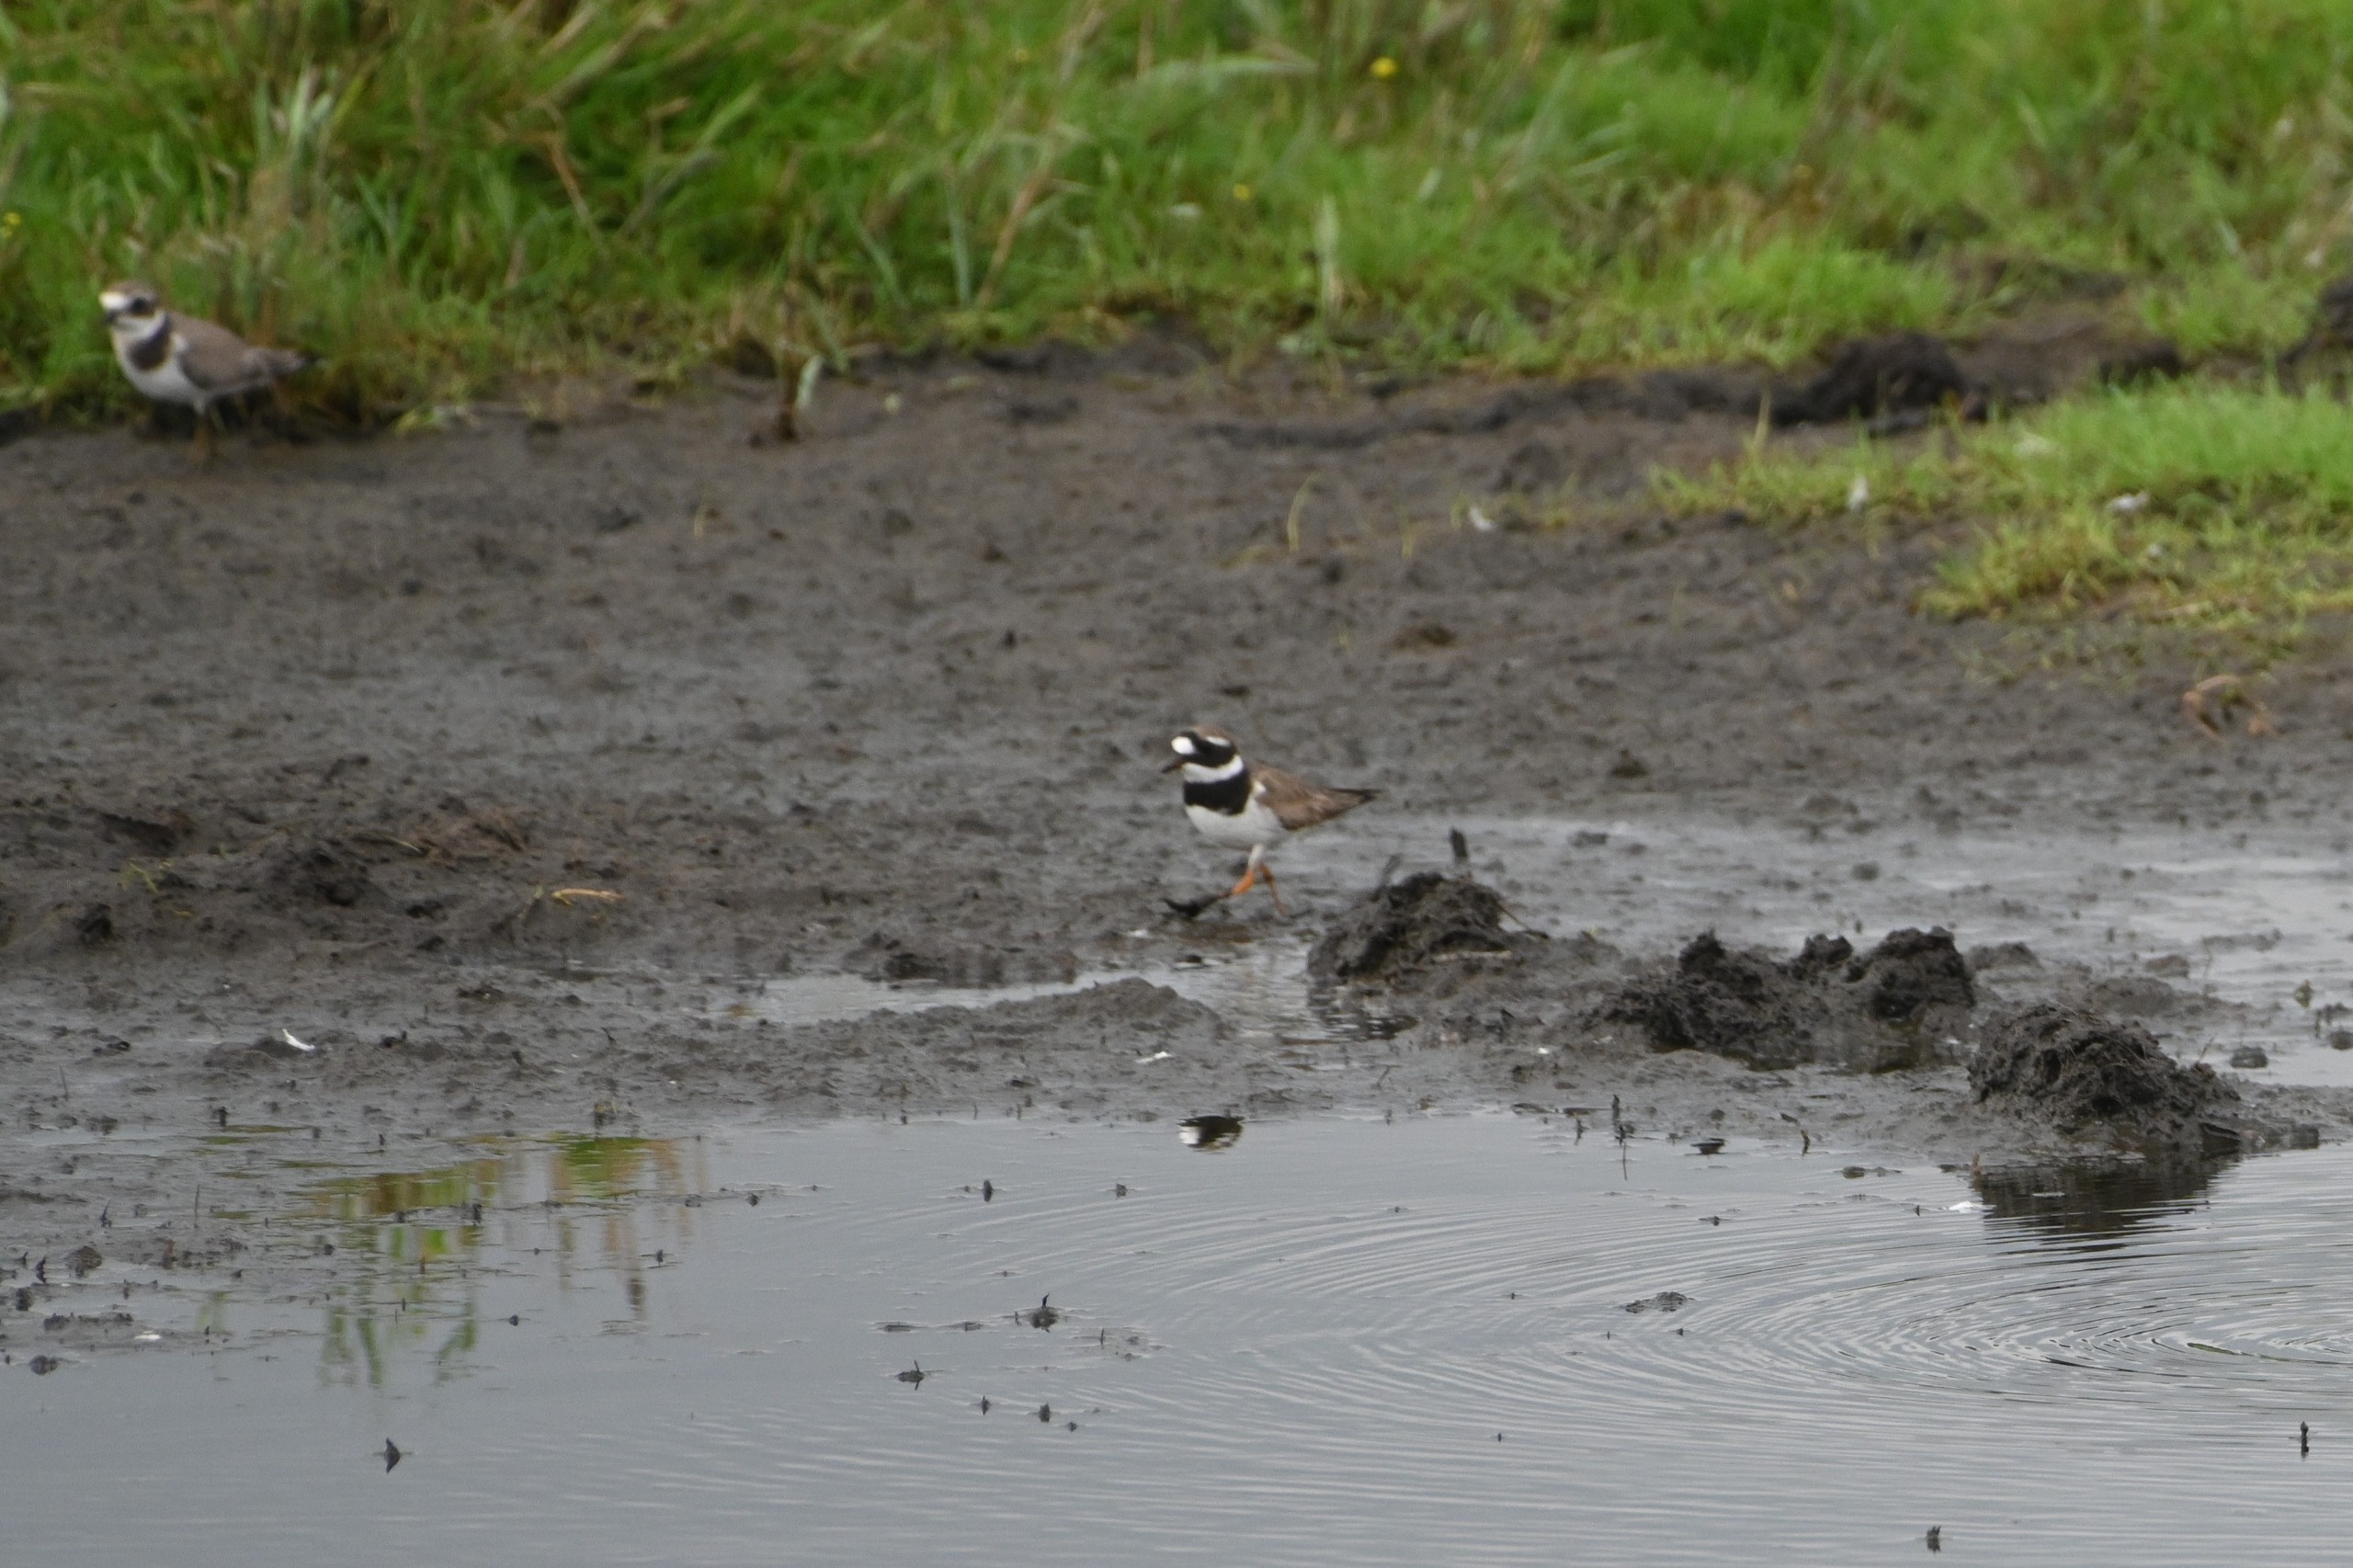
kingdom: Animalia
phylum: Chordata
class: Aves
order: Charadriiformes
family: Charadriidae
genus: Charadrius
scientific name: Charadrius hiaticula
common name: Stor præstekrave
